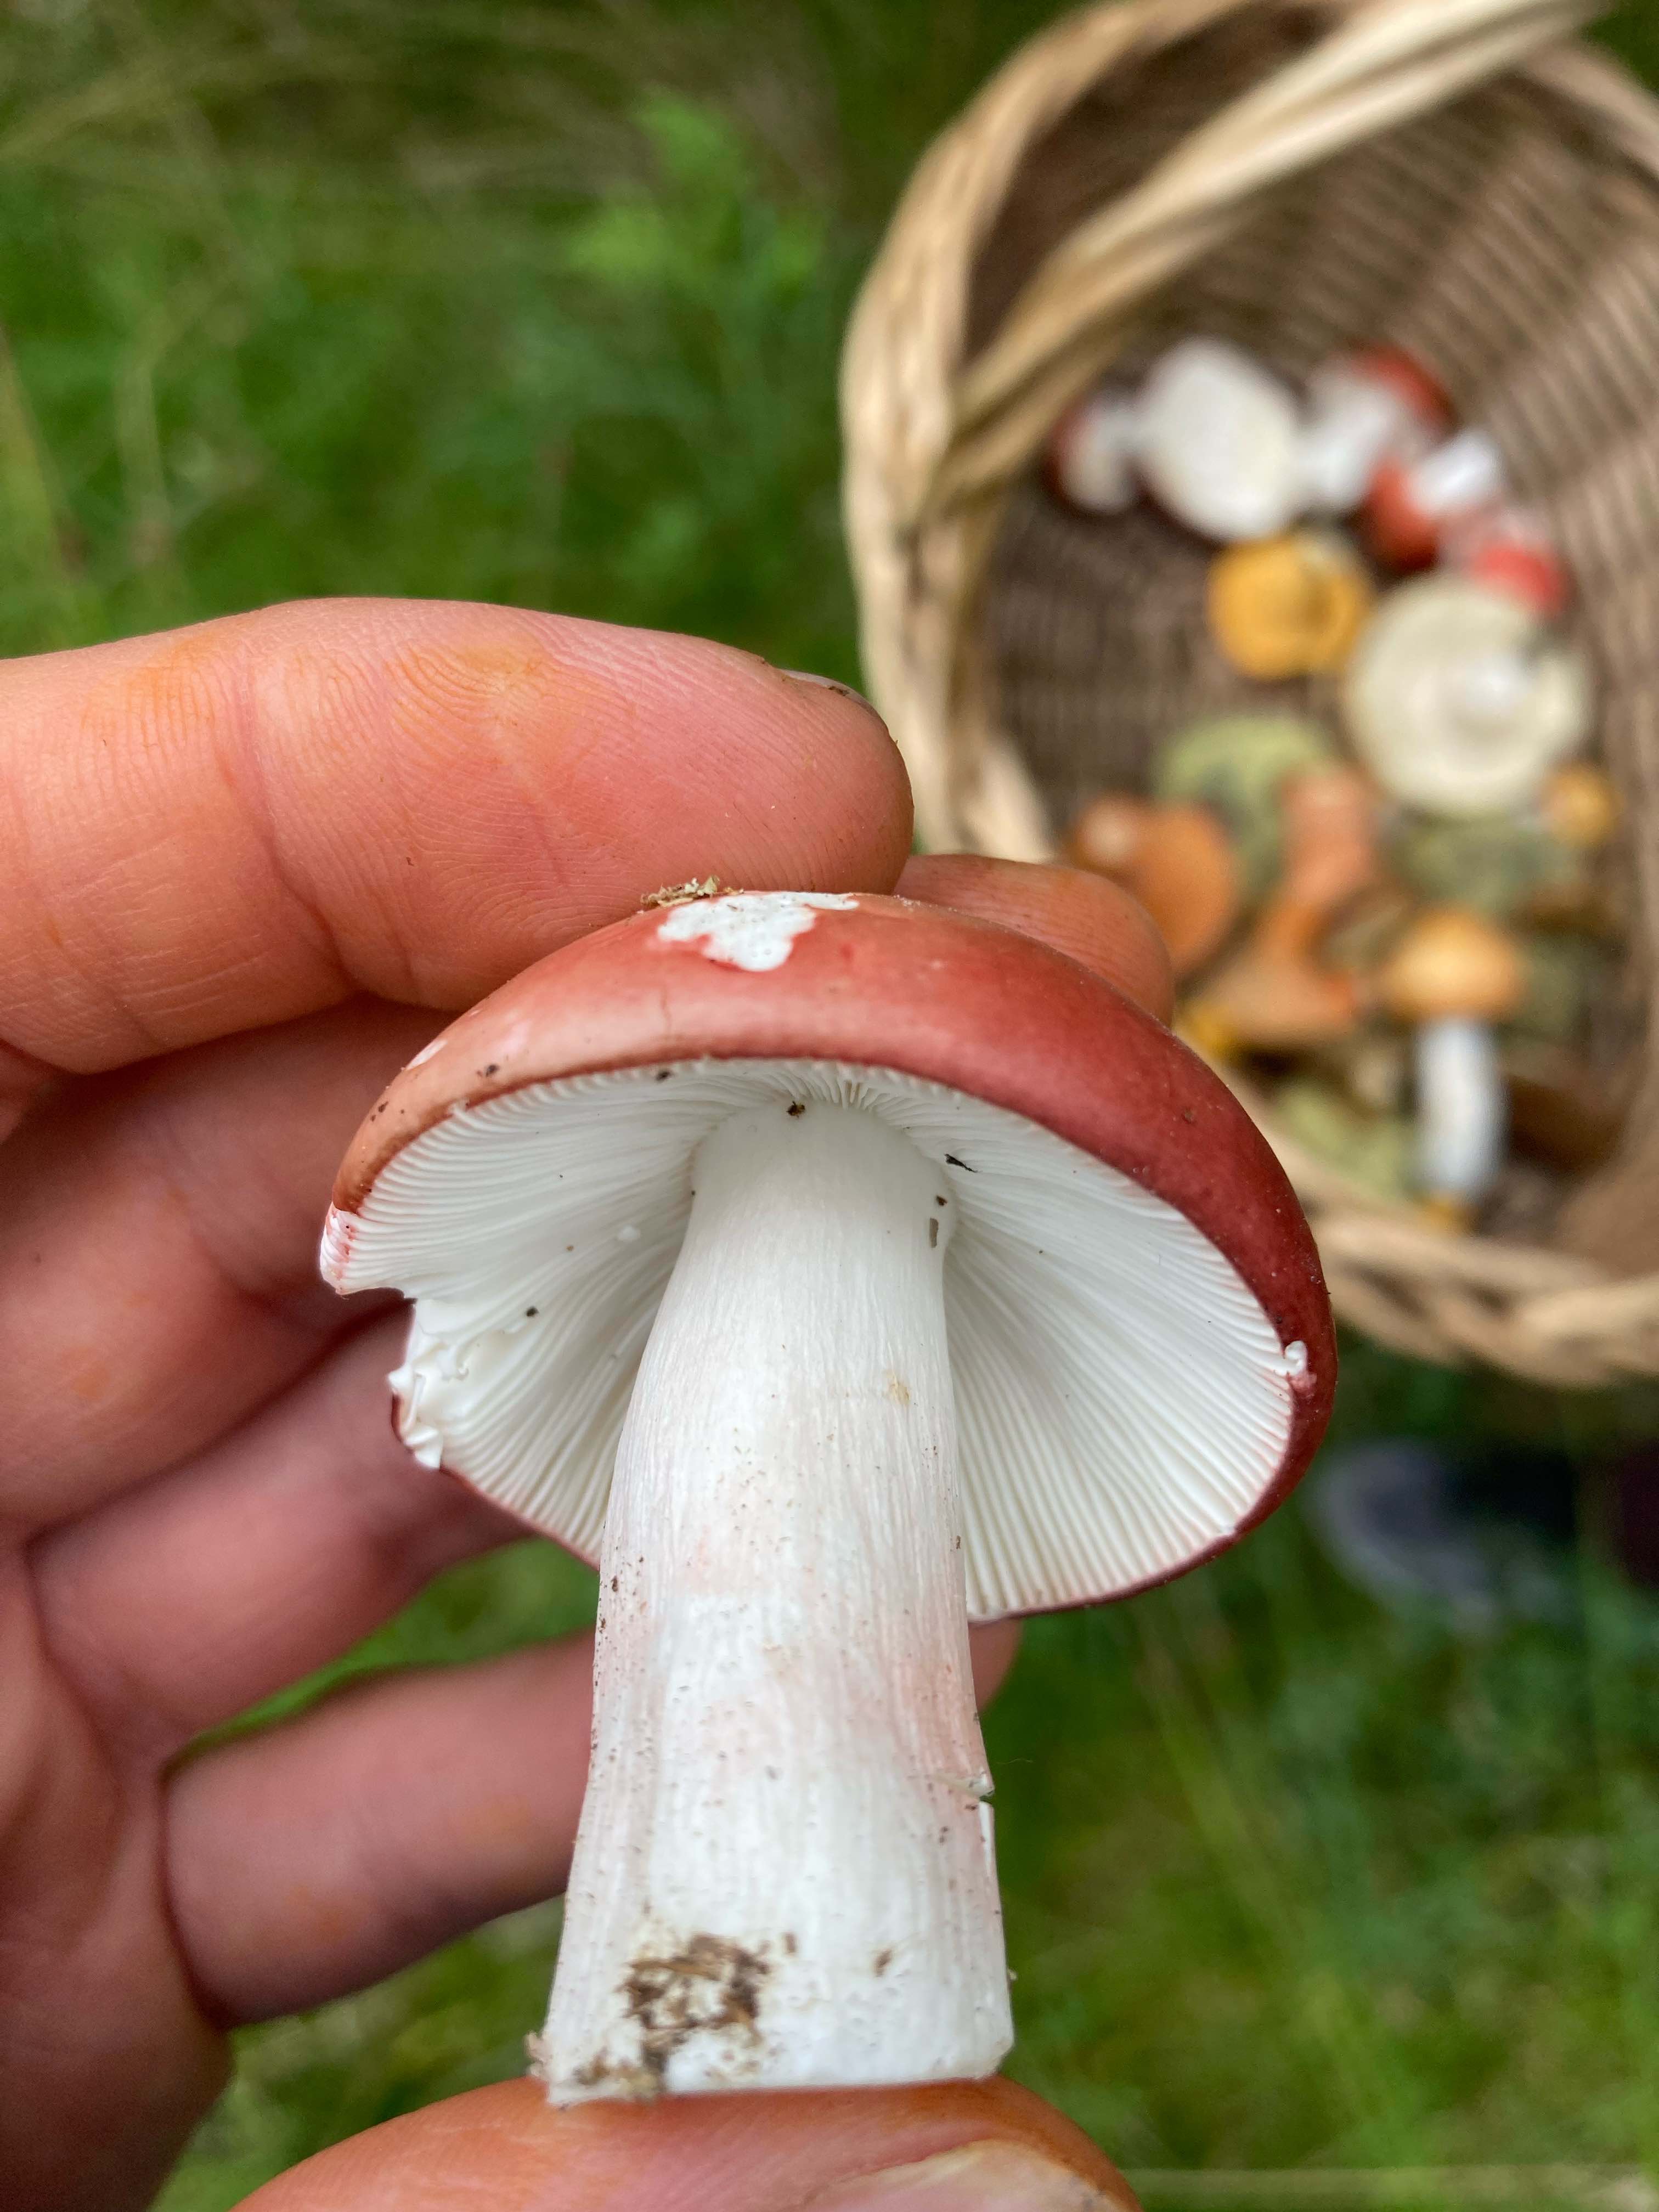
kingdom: Fungi
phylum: Basidiomycota
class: Agaricomycetes
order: Russulales
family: Russulaceae
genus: Russula
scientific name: Russula paludosa
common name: prægtig skørhat
